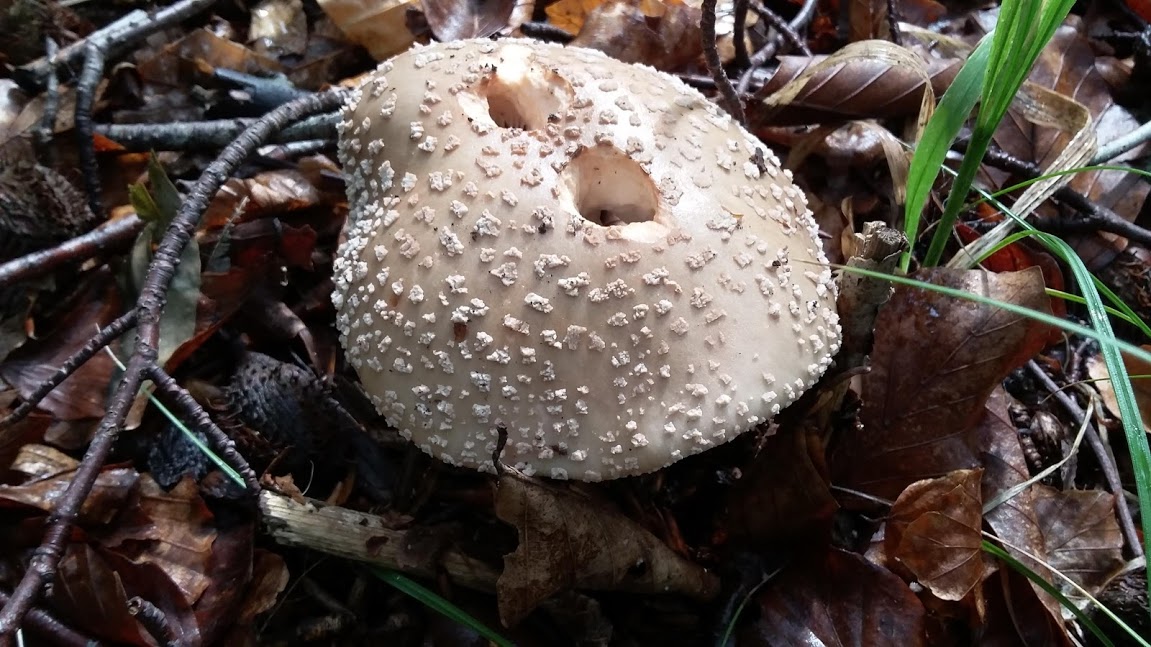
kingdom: Fungi
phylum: Basidiomycota
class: Agaricomycetes
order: Agaricales
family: Amanitaceae
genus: Amanita
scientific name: Amanita rubescens
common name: rødmende fluesvamp
